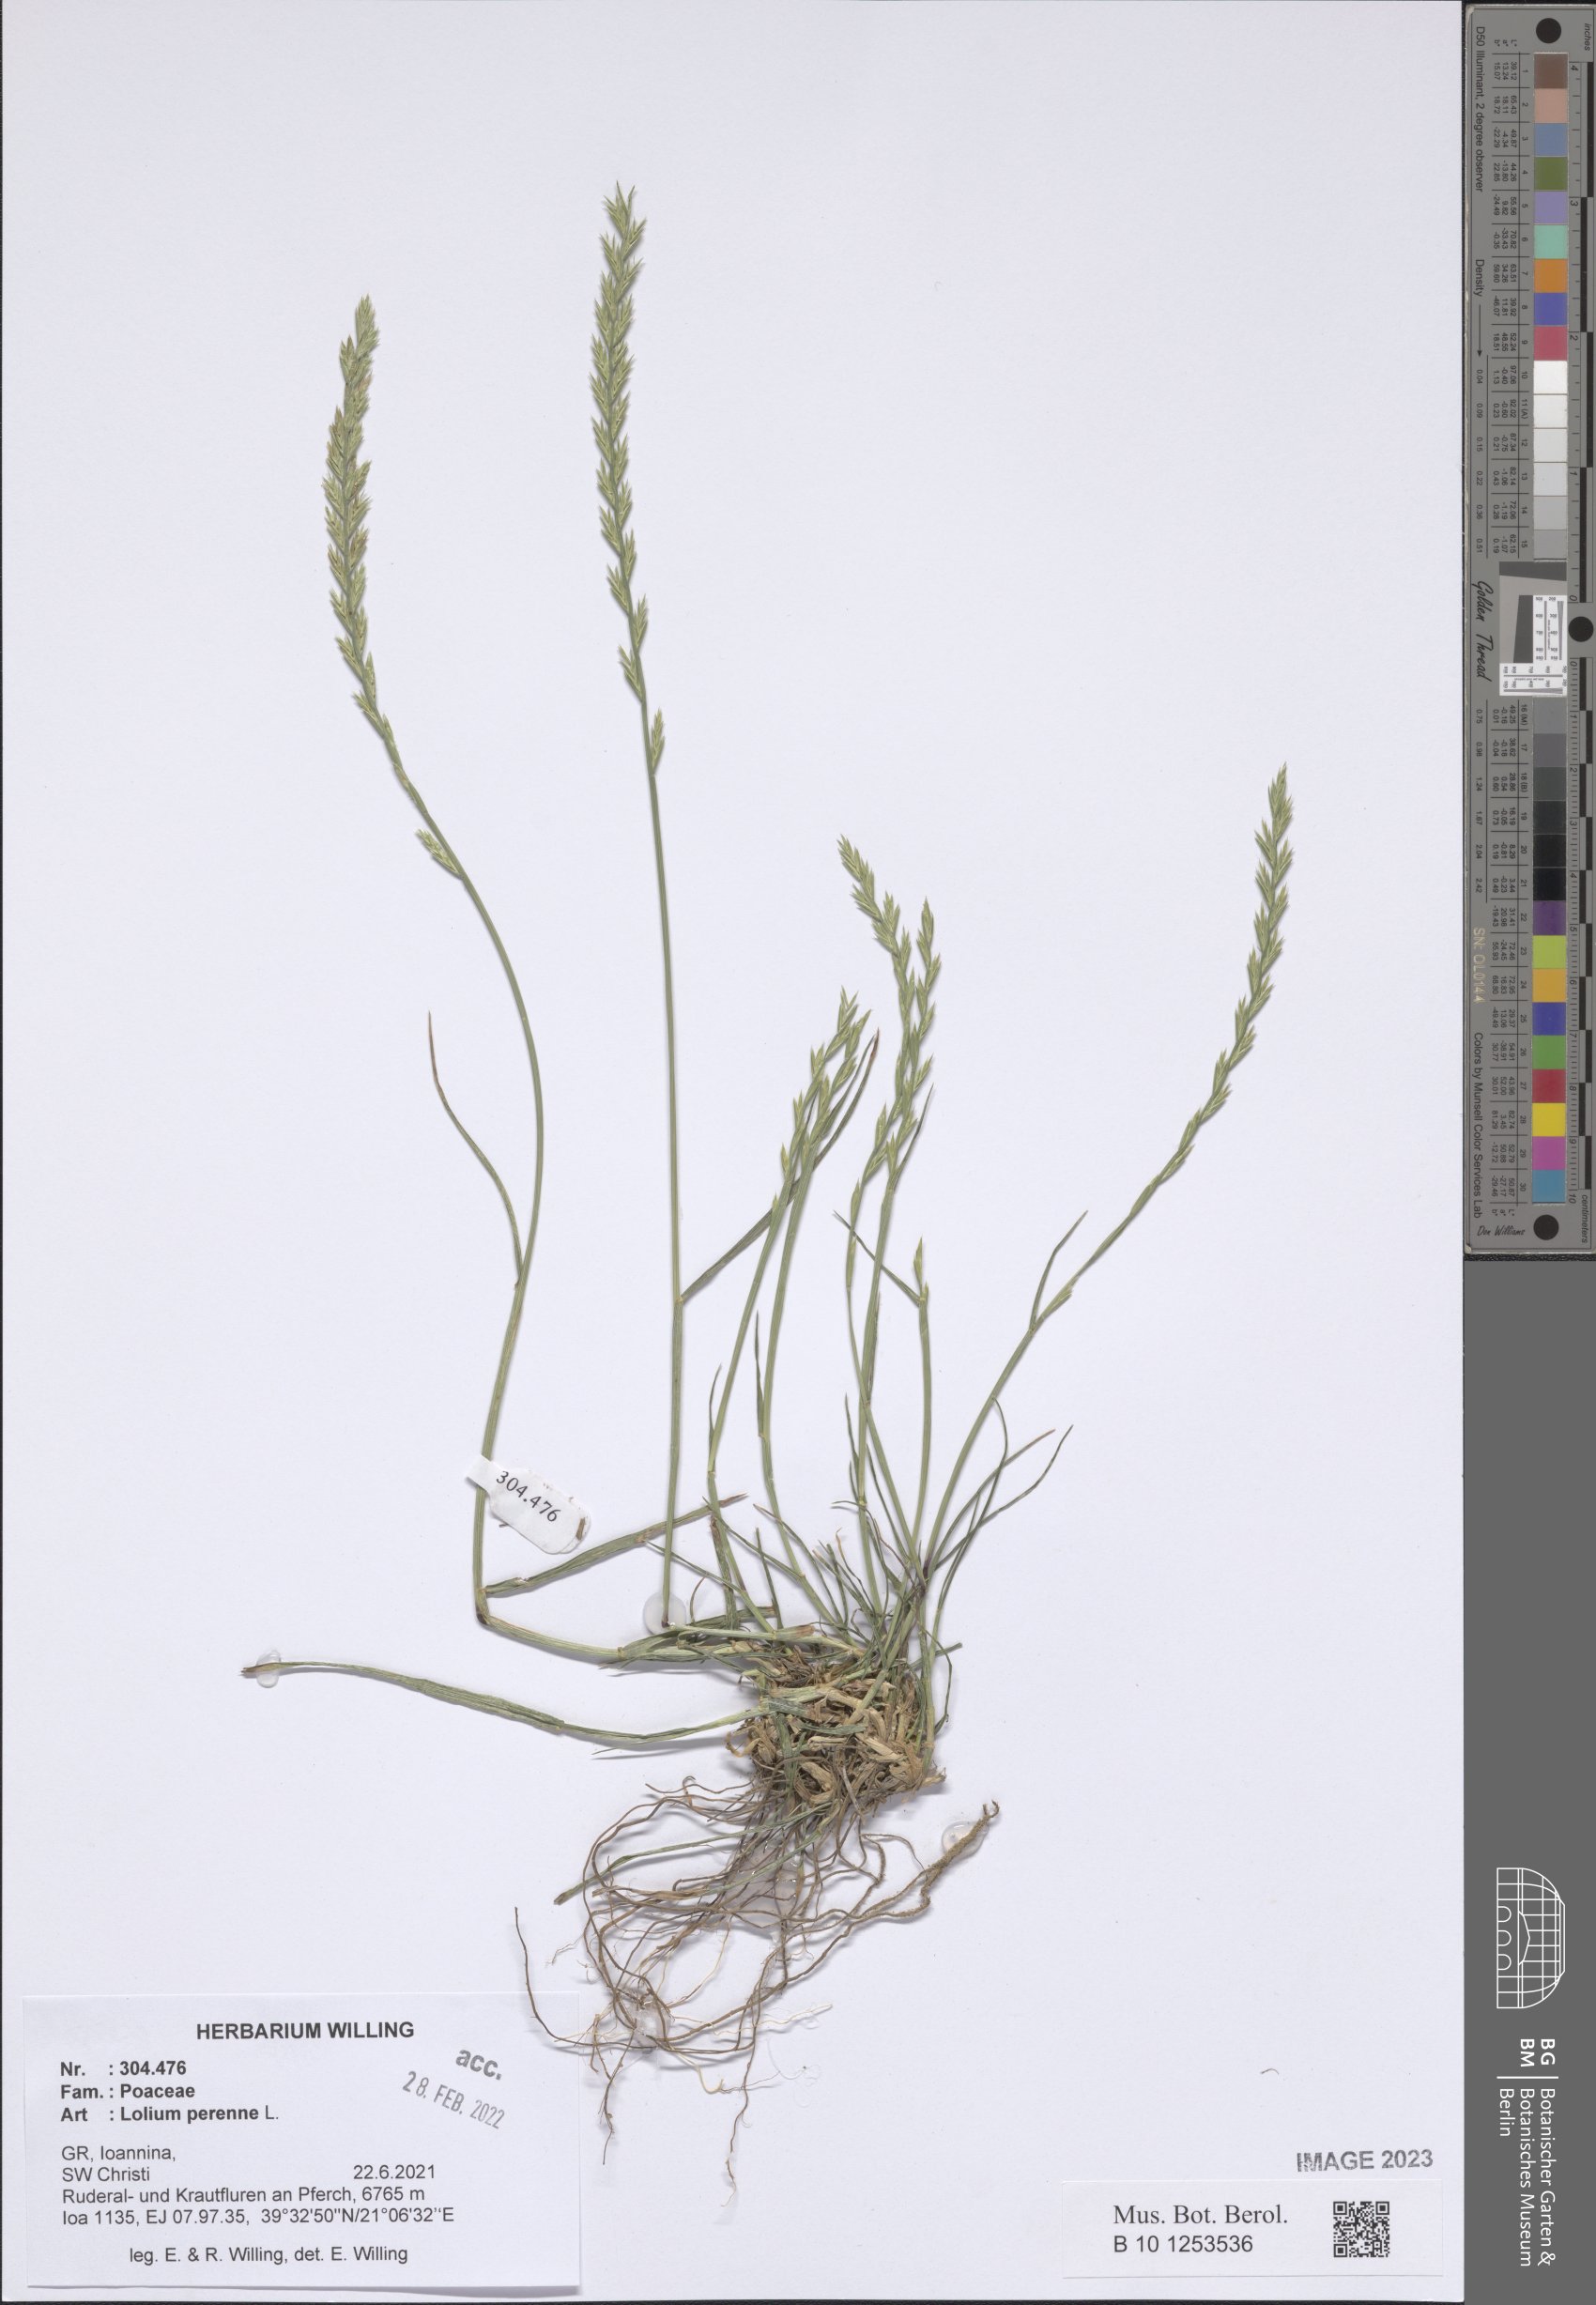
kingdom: Plantae
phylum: Tracheophyta
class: Liliopsida
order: Poales
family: Poaceae
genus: Lolium
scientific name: Lolium perenne
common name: Perennial ryegrass
